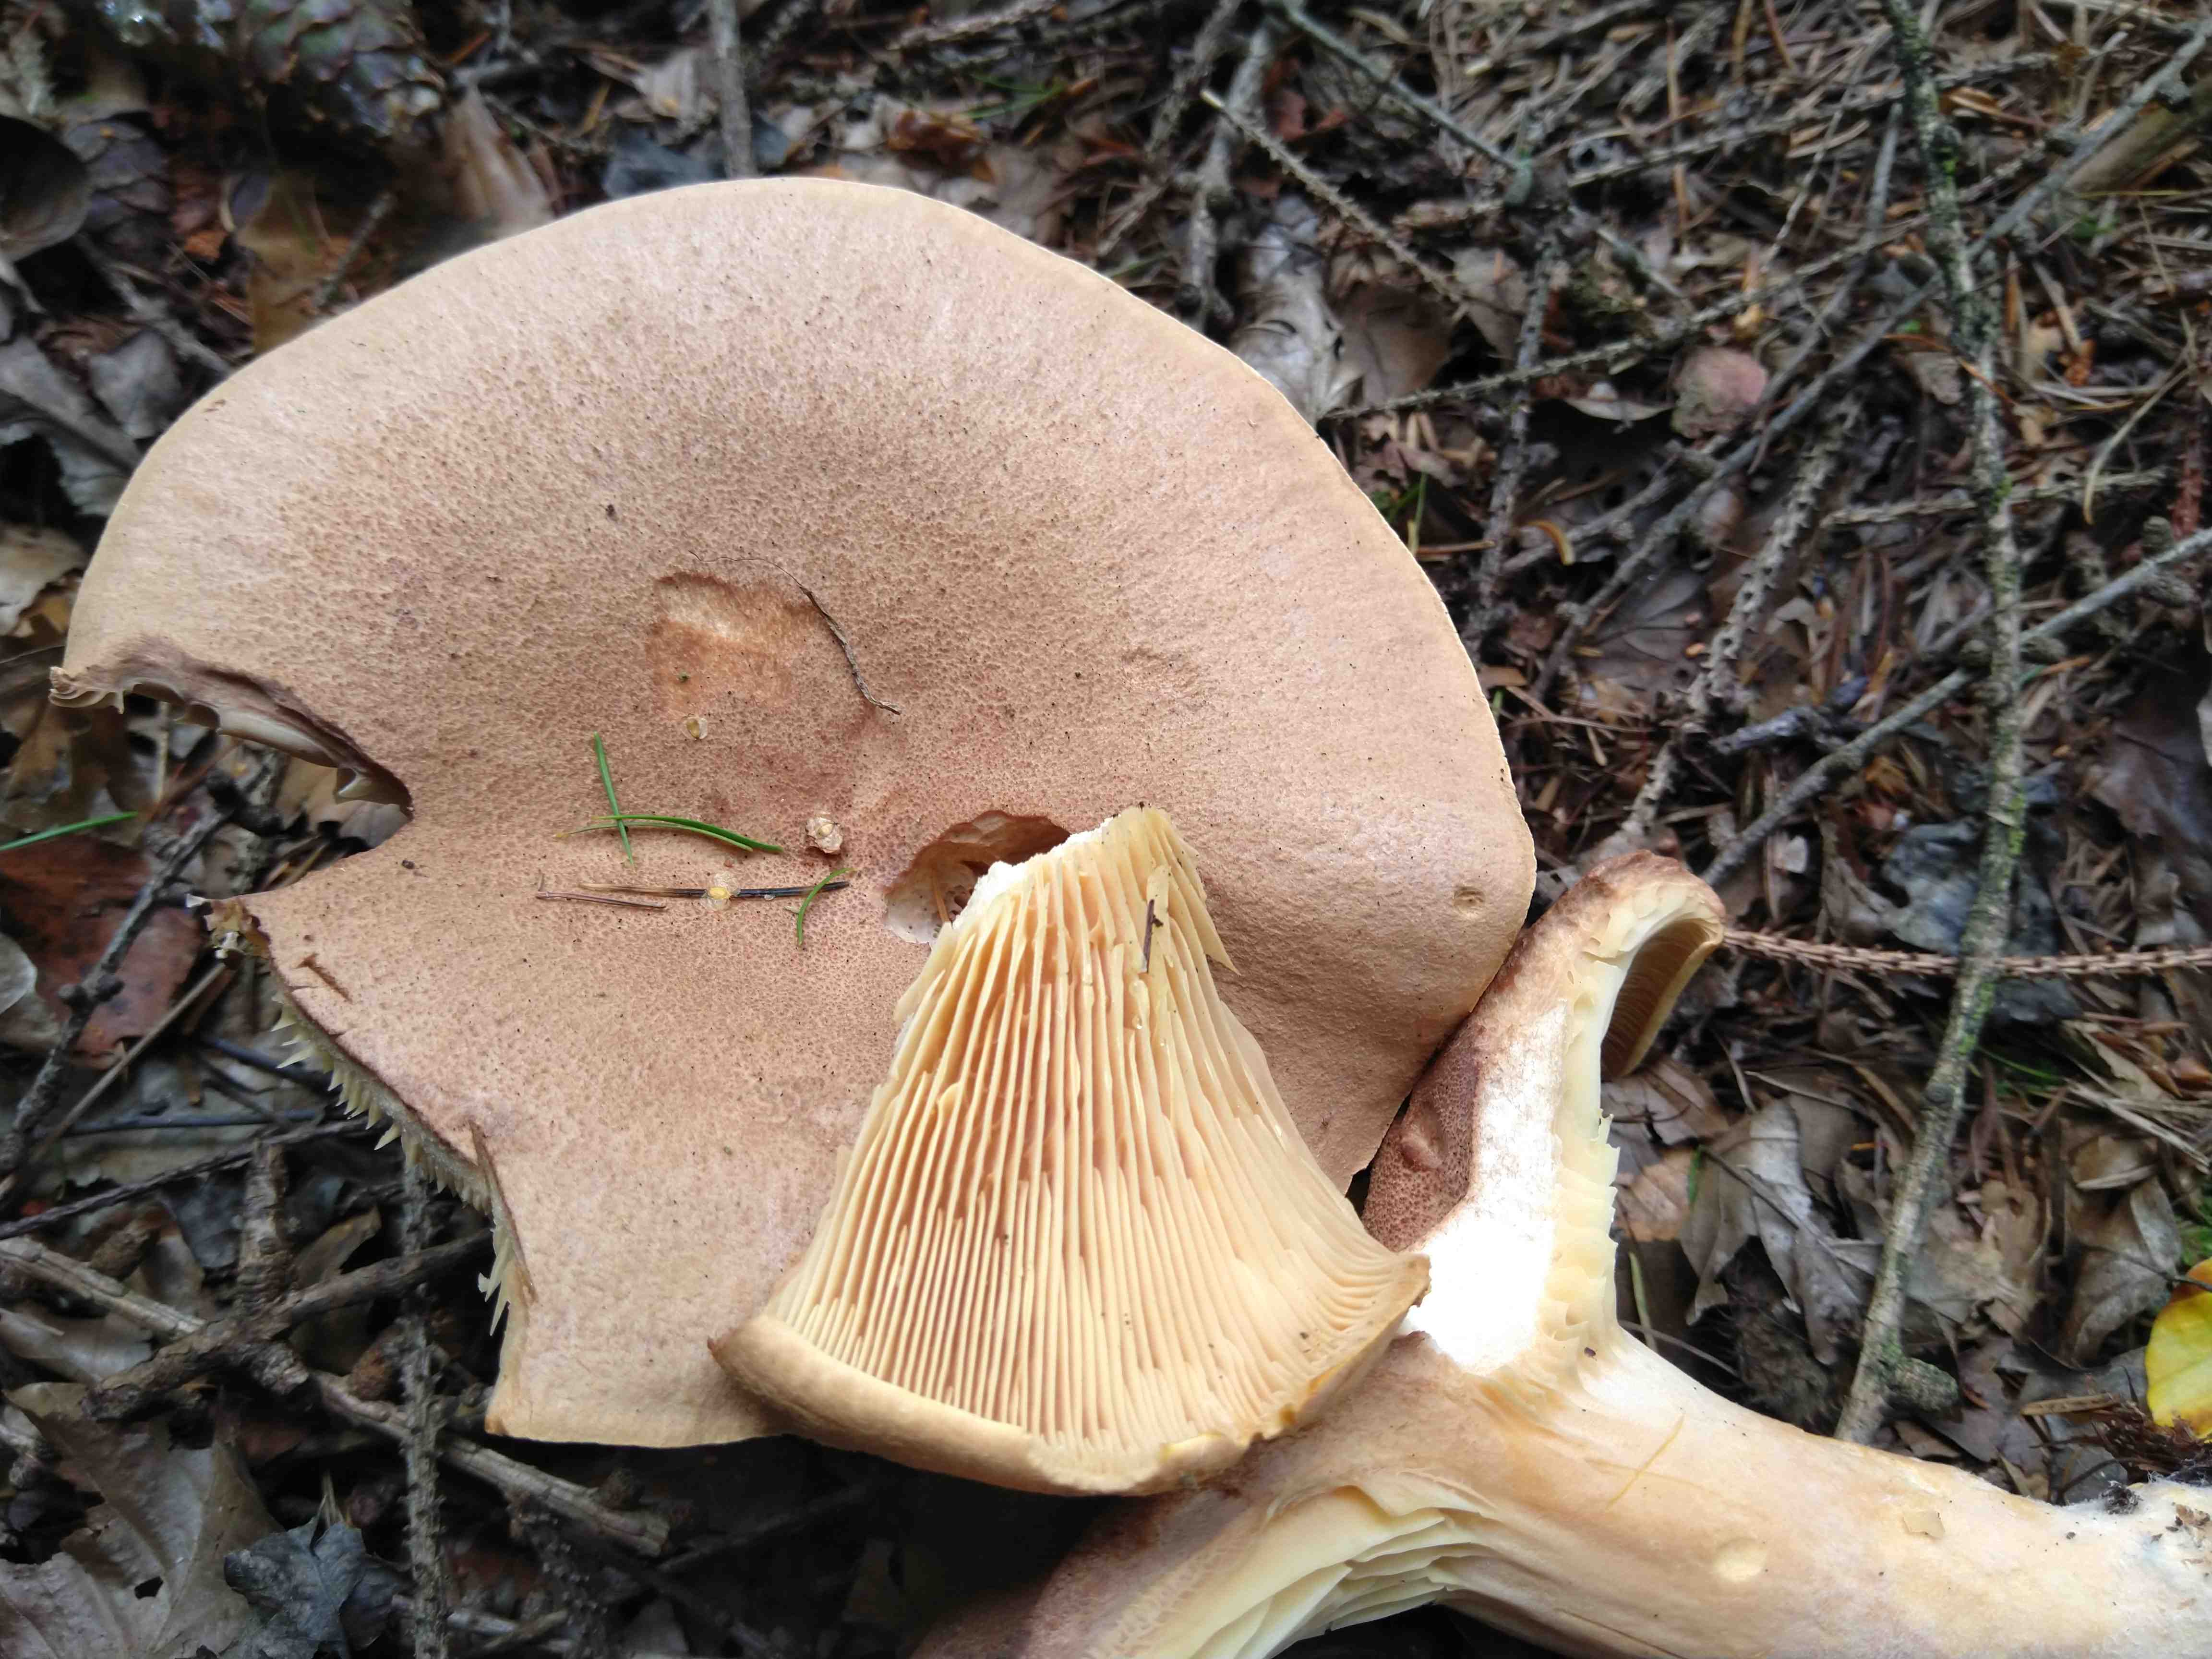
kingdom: Fungi
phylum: Basidiomycota
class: Agaricomycetes
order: Russulales
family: Russulaceae
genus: Lactarius
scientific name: Lactarius helvus
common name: mose-mælkehat
